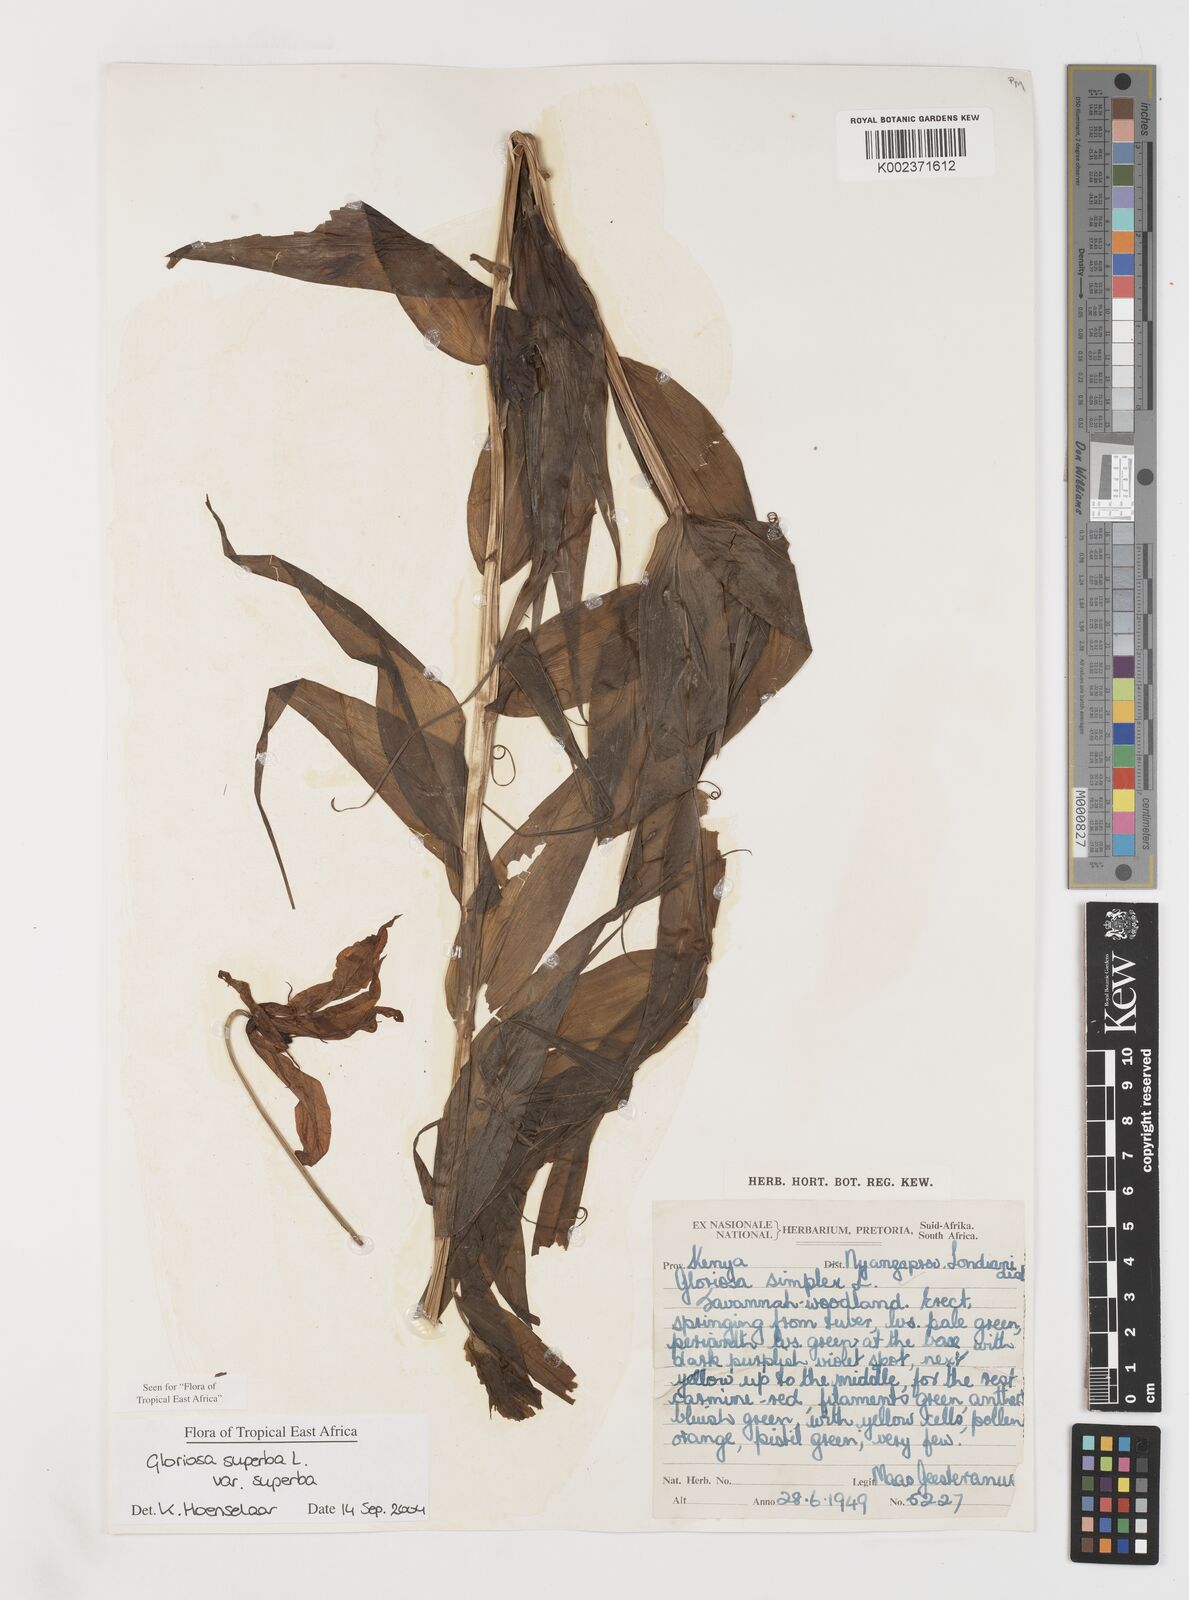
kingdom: Plantae
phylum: Tracheophyta
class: Liliopsida
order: Liliales
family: Colchicaceae
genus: Gloriosa
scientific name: Gloriosa simplex
